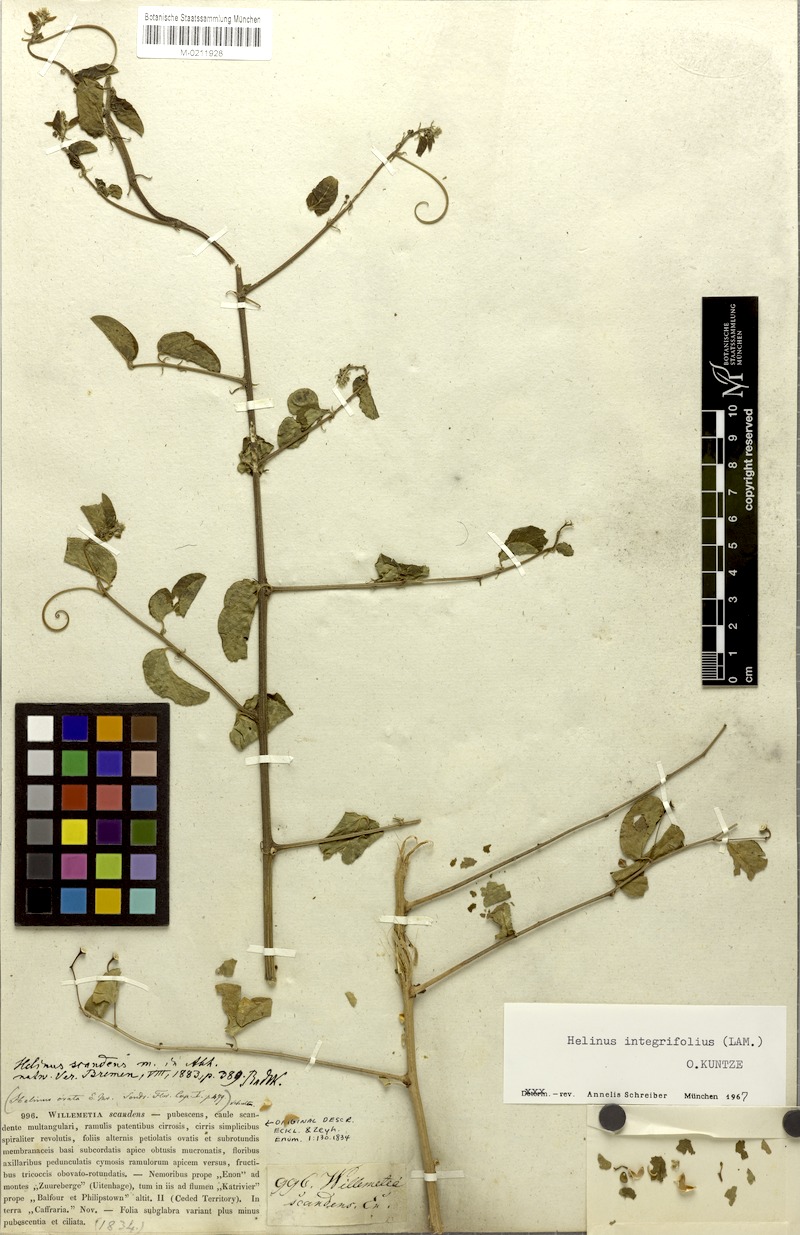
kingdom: Plantae
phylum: Tracheophyta
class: Magnoliopsida
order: Rosales
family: Rhamnaceae
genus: Helinus
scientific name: Helinus integrifolius
